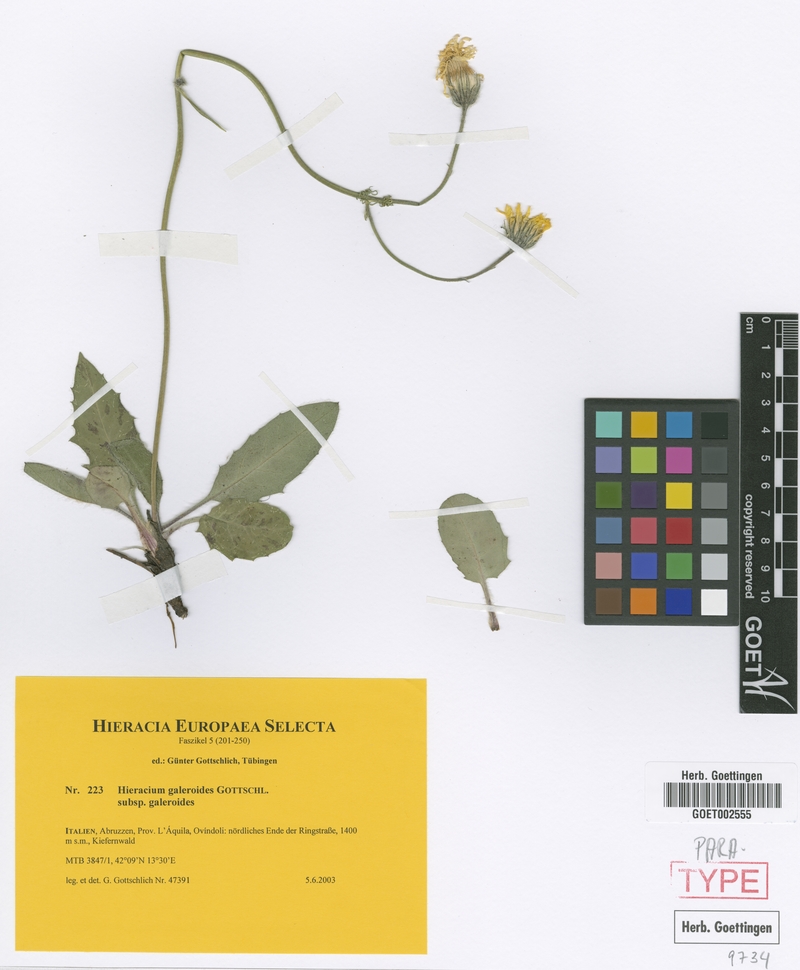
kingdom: Plantae
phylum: Tracheophyta
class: Magnoliopsida
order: Asterales
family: Asteraceae
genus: Hieracium
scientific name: Hieracium galeroides
